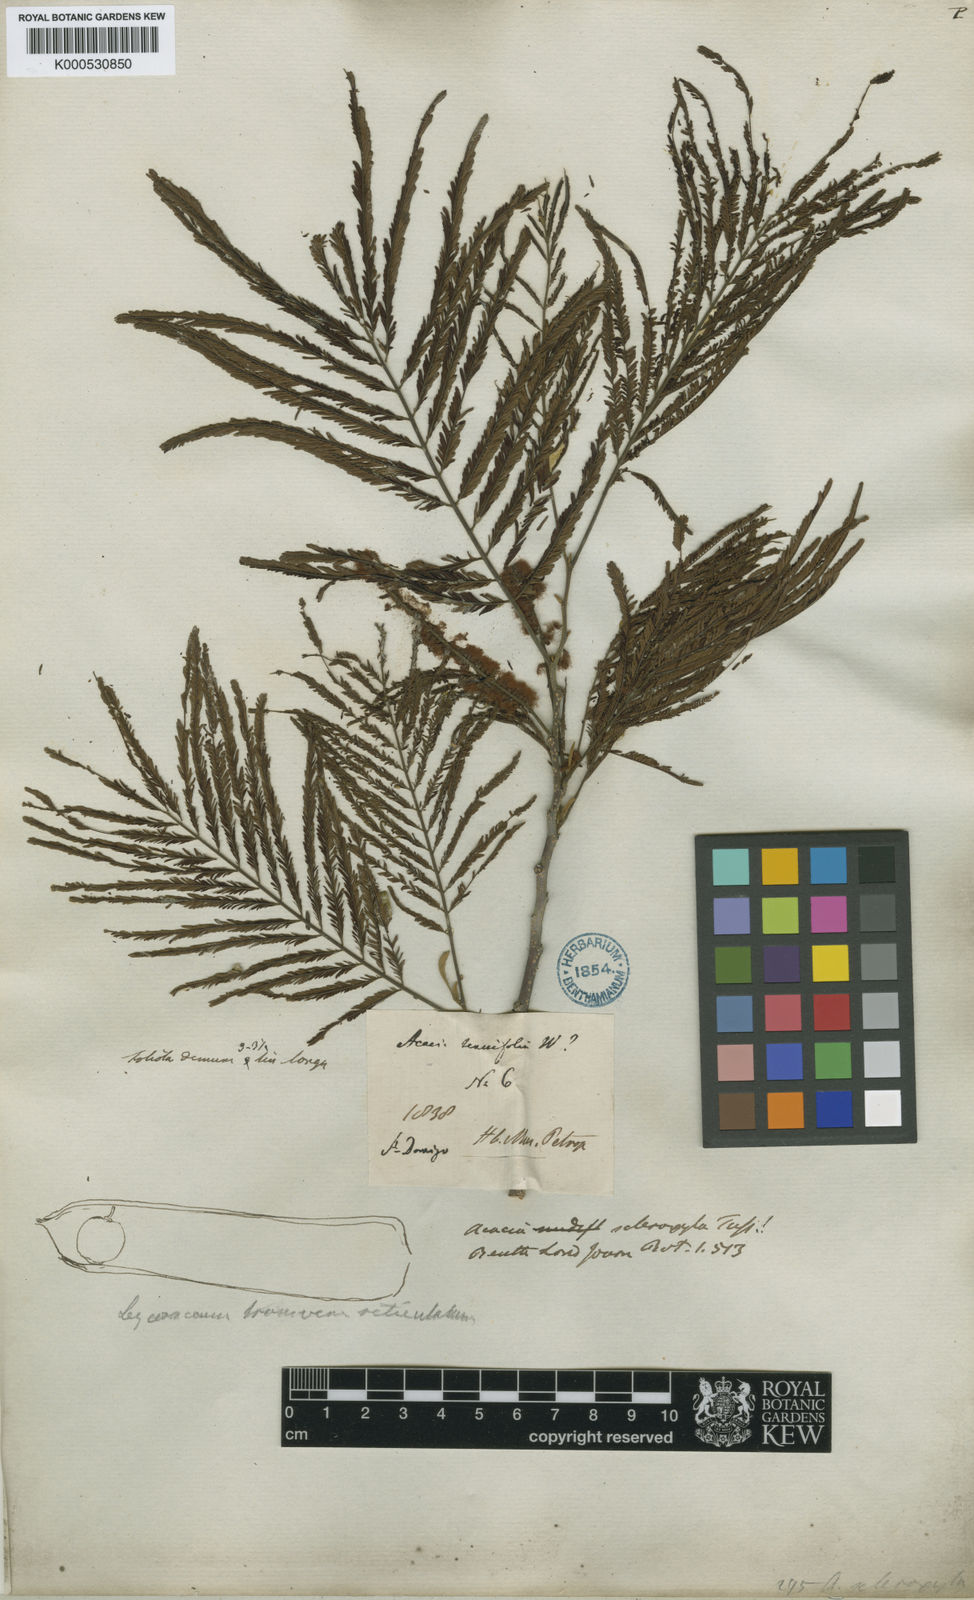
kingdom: Plantae
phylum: Tracheophyta
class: Magnoliopsida
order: Fabales
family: Fabaceae
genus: Acacia
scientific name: Acacia
